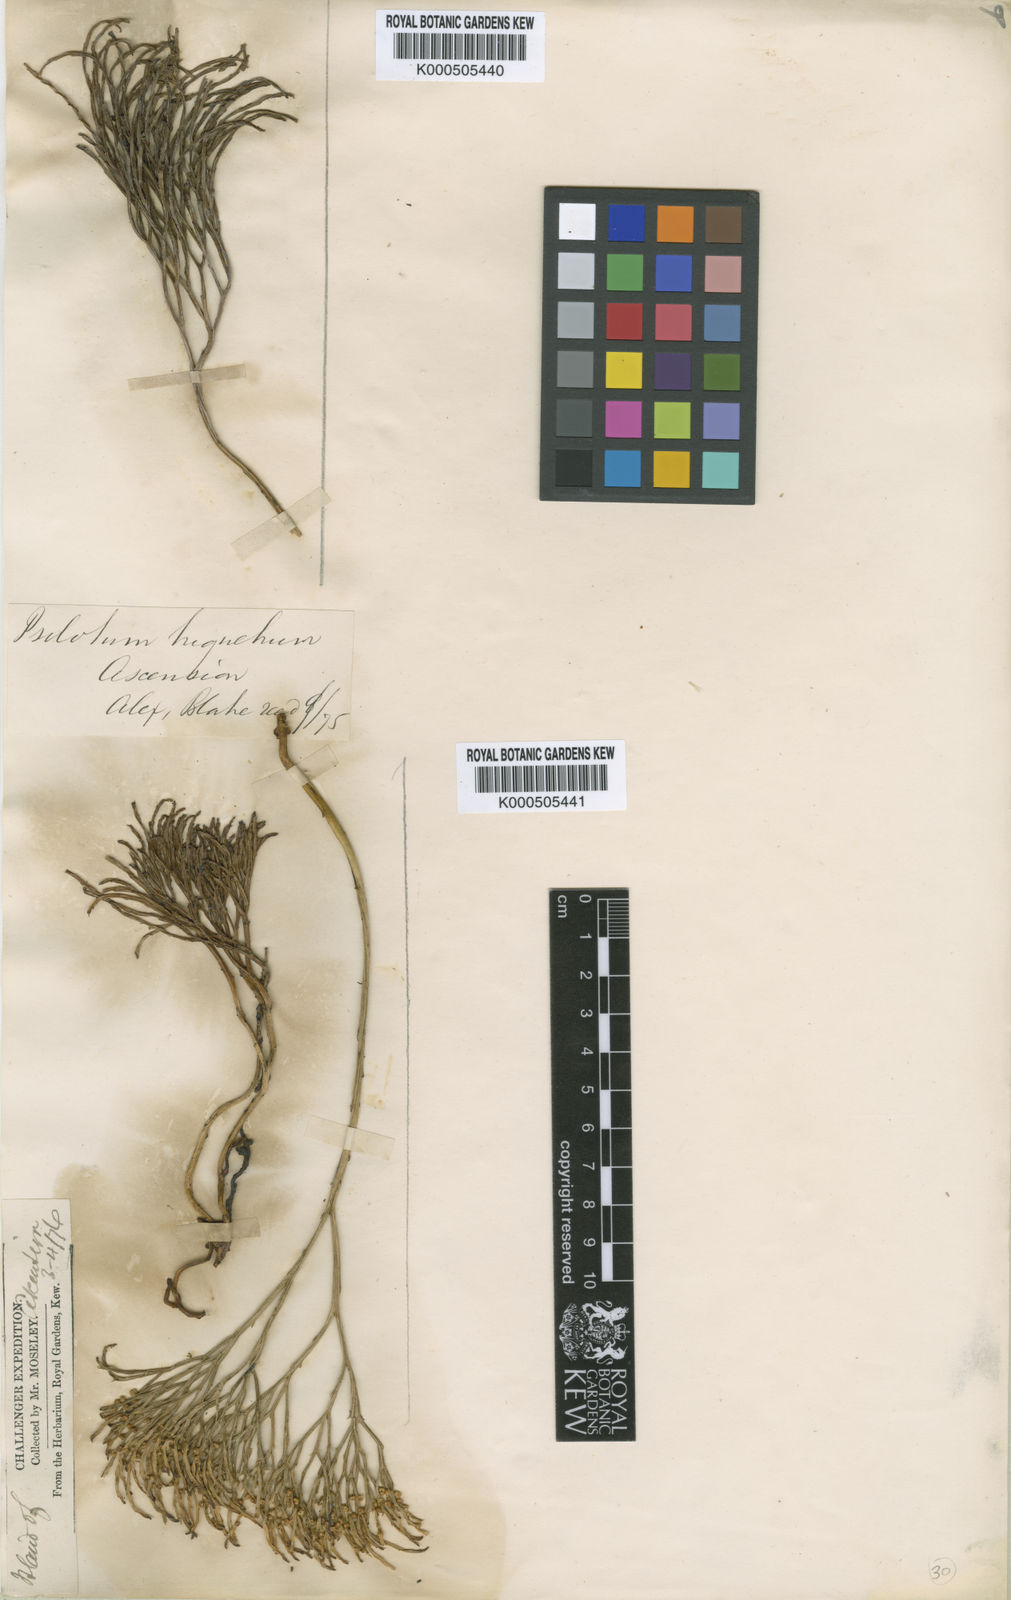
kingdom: Plantae
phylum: Tracheophyta
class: Polypodiopsida
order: Psilotales
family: Psilotaceae
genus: Psilotum
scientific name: Psilotum
